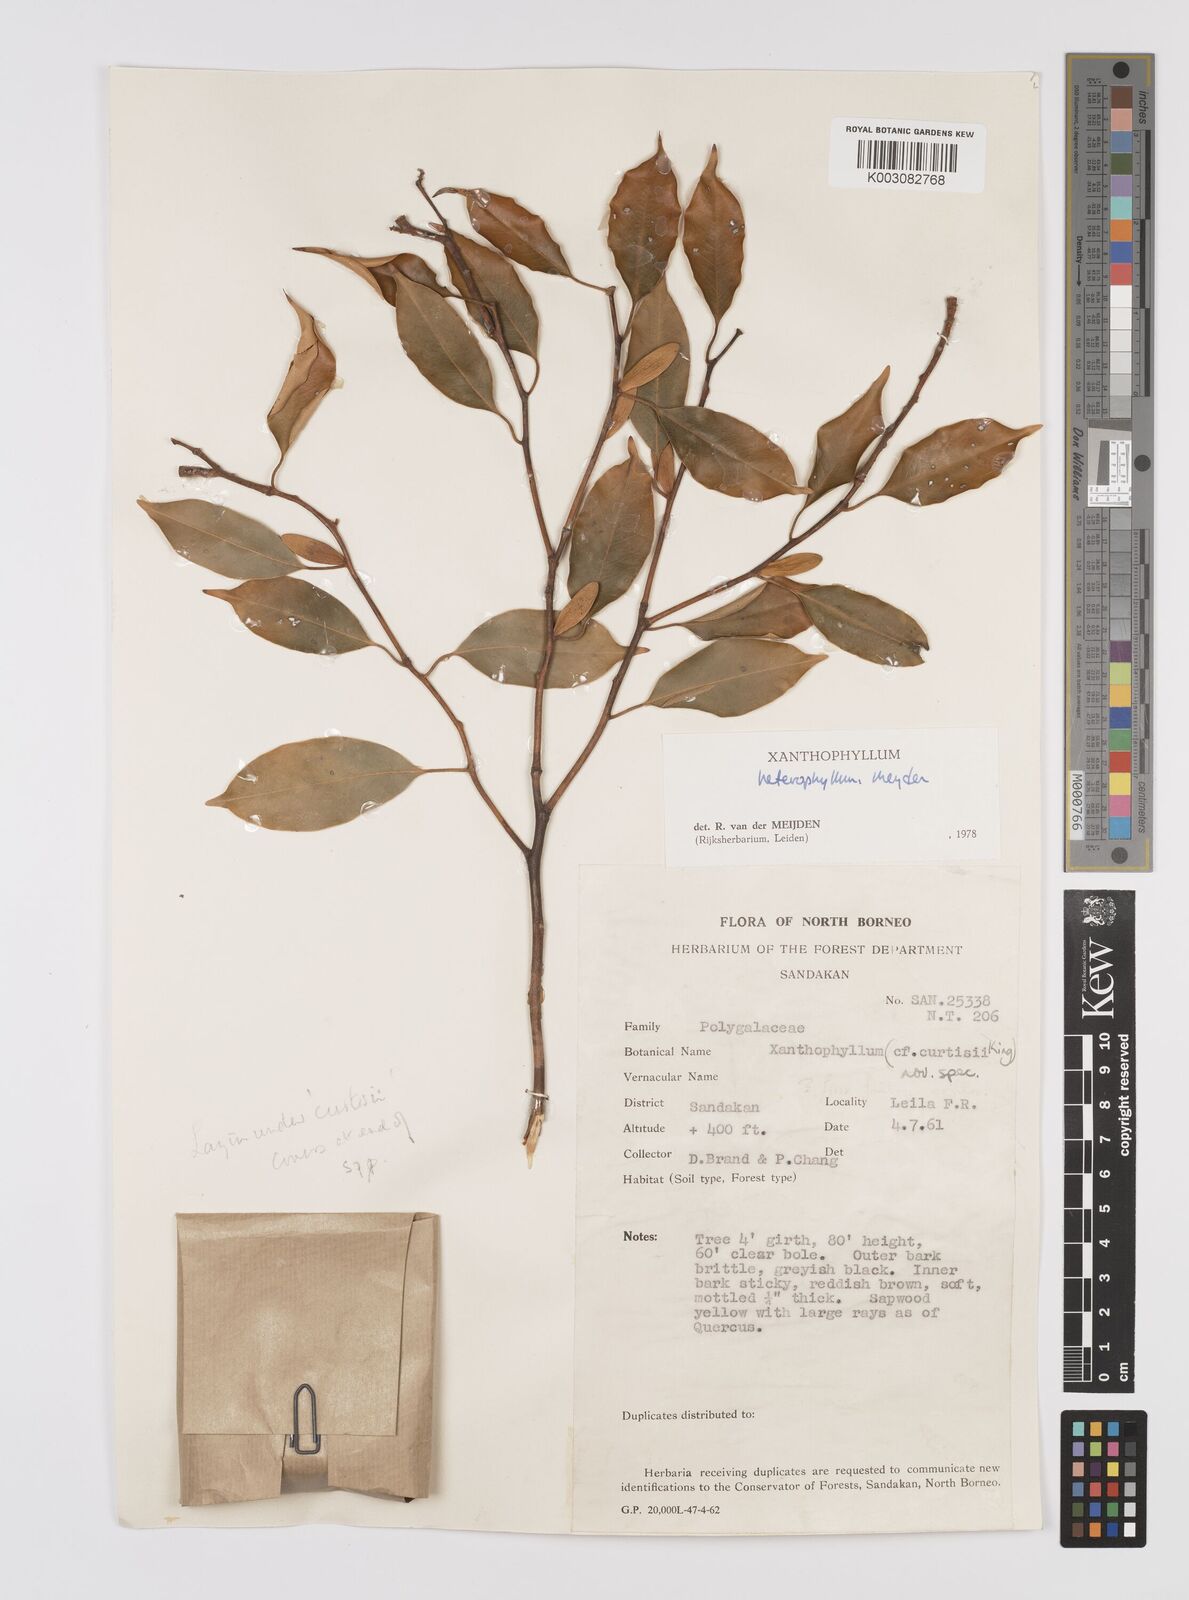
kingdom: Plantae
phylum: Tracheophyta
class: Magnoliopsida
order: Fabales
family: Polygalaceae
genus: Xanthophyllum
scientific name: Xanthophyllum heterophyllum
